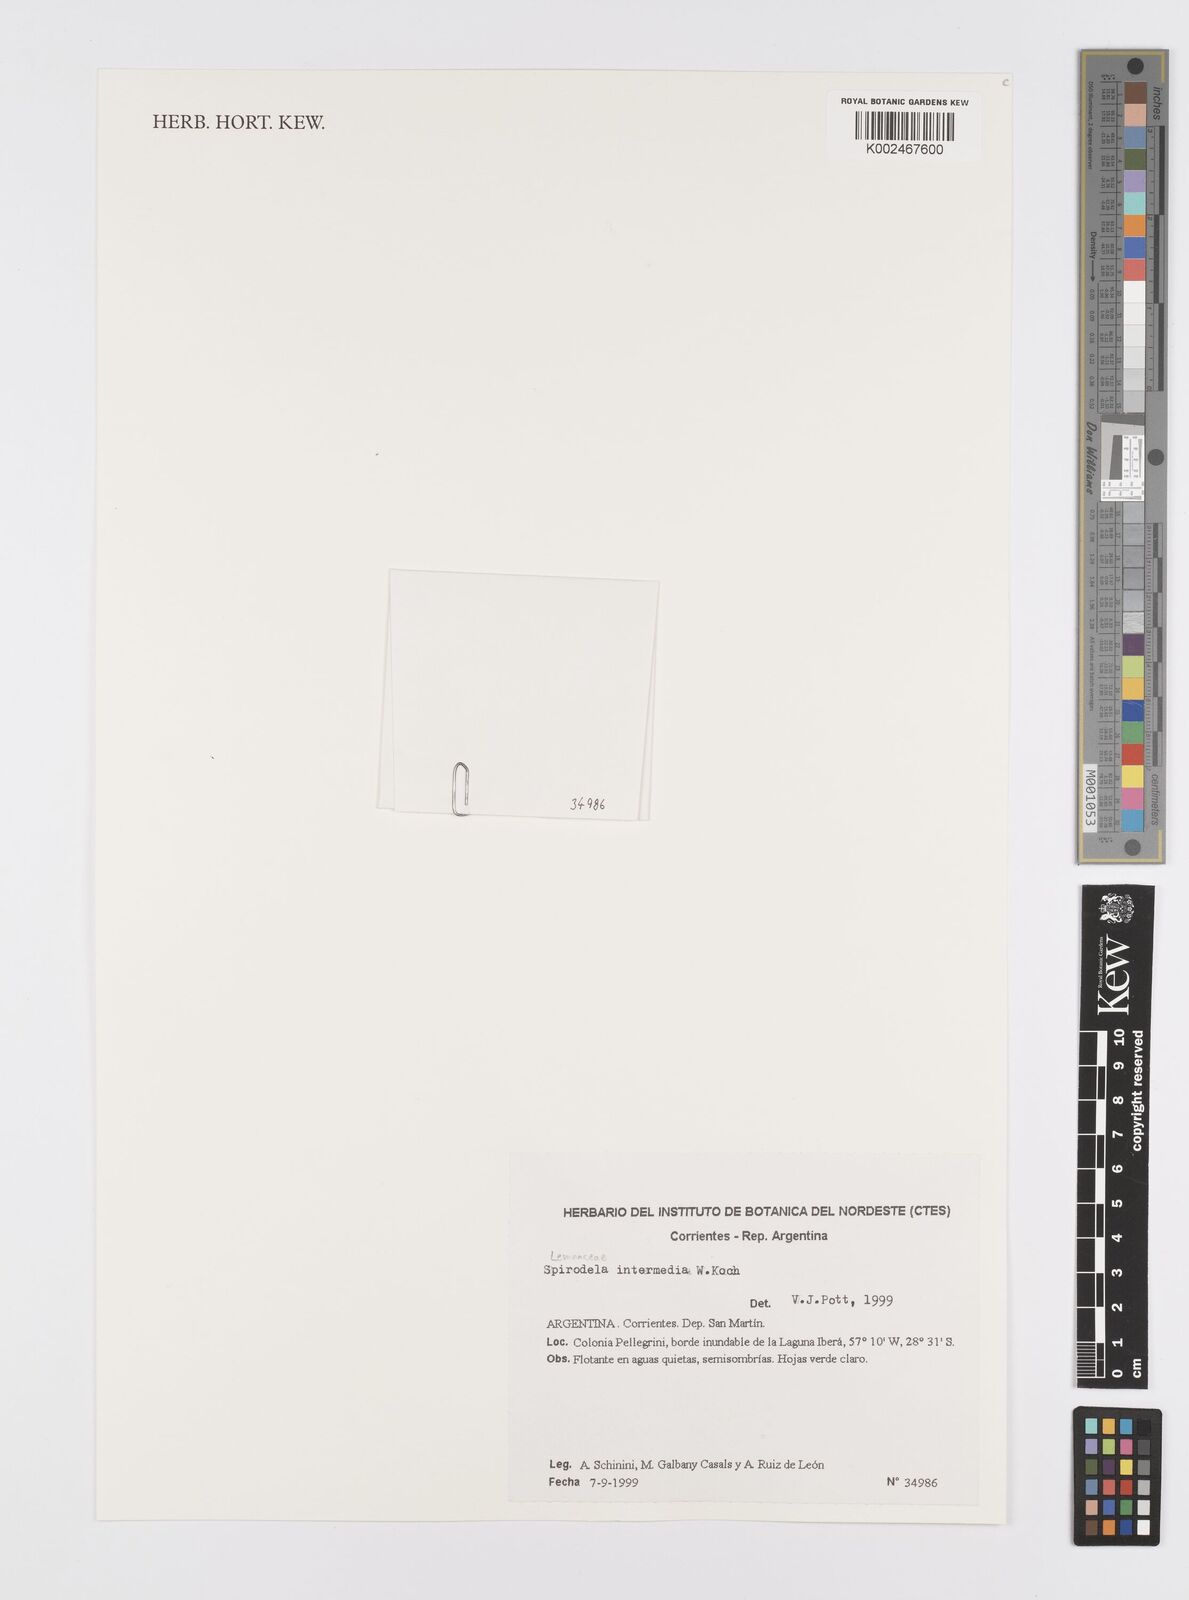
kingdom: Plantae
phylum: Tracheophyta
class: Liliopsida
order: Alismatales
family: Araceae
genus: Spirodela
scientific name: Spirodela punctata
